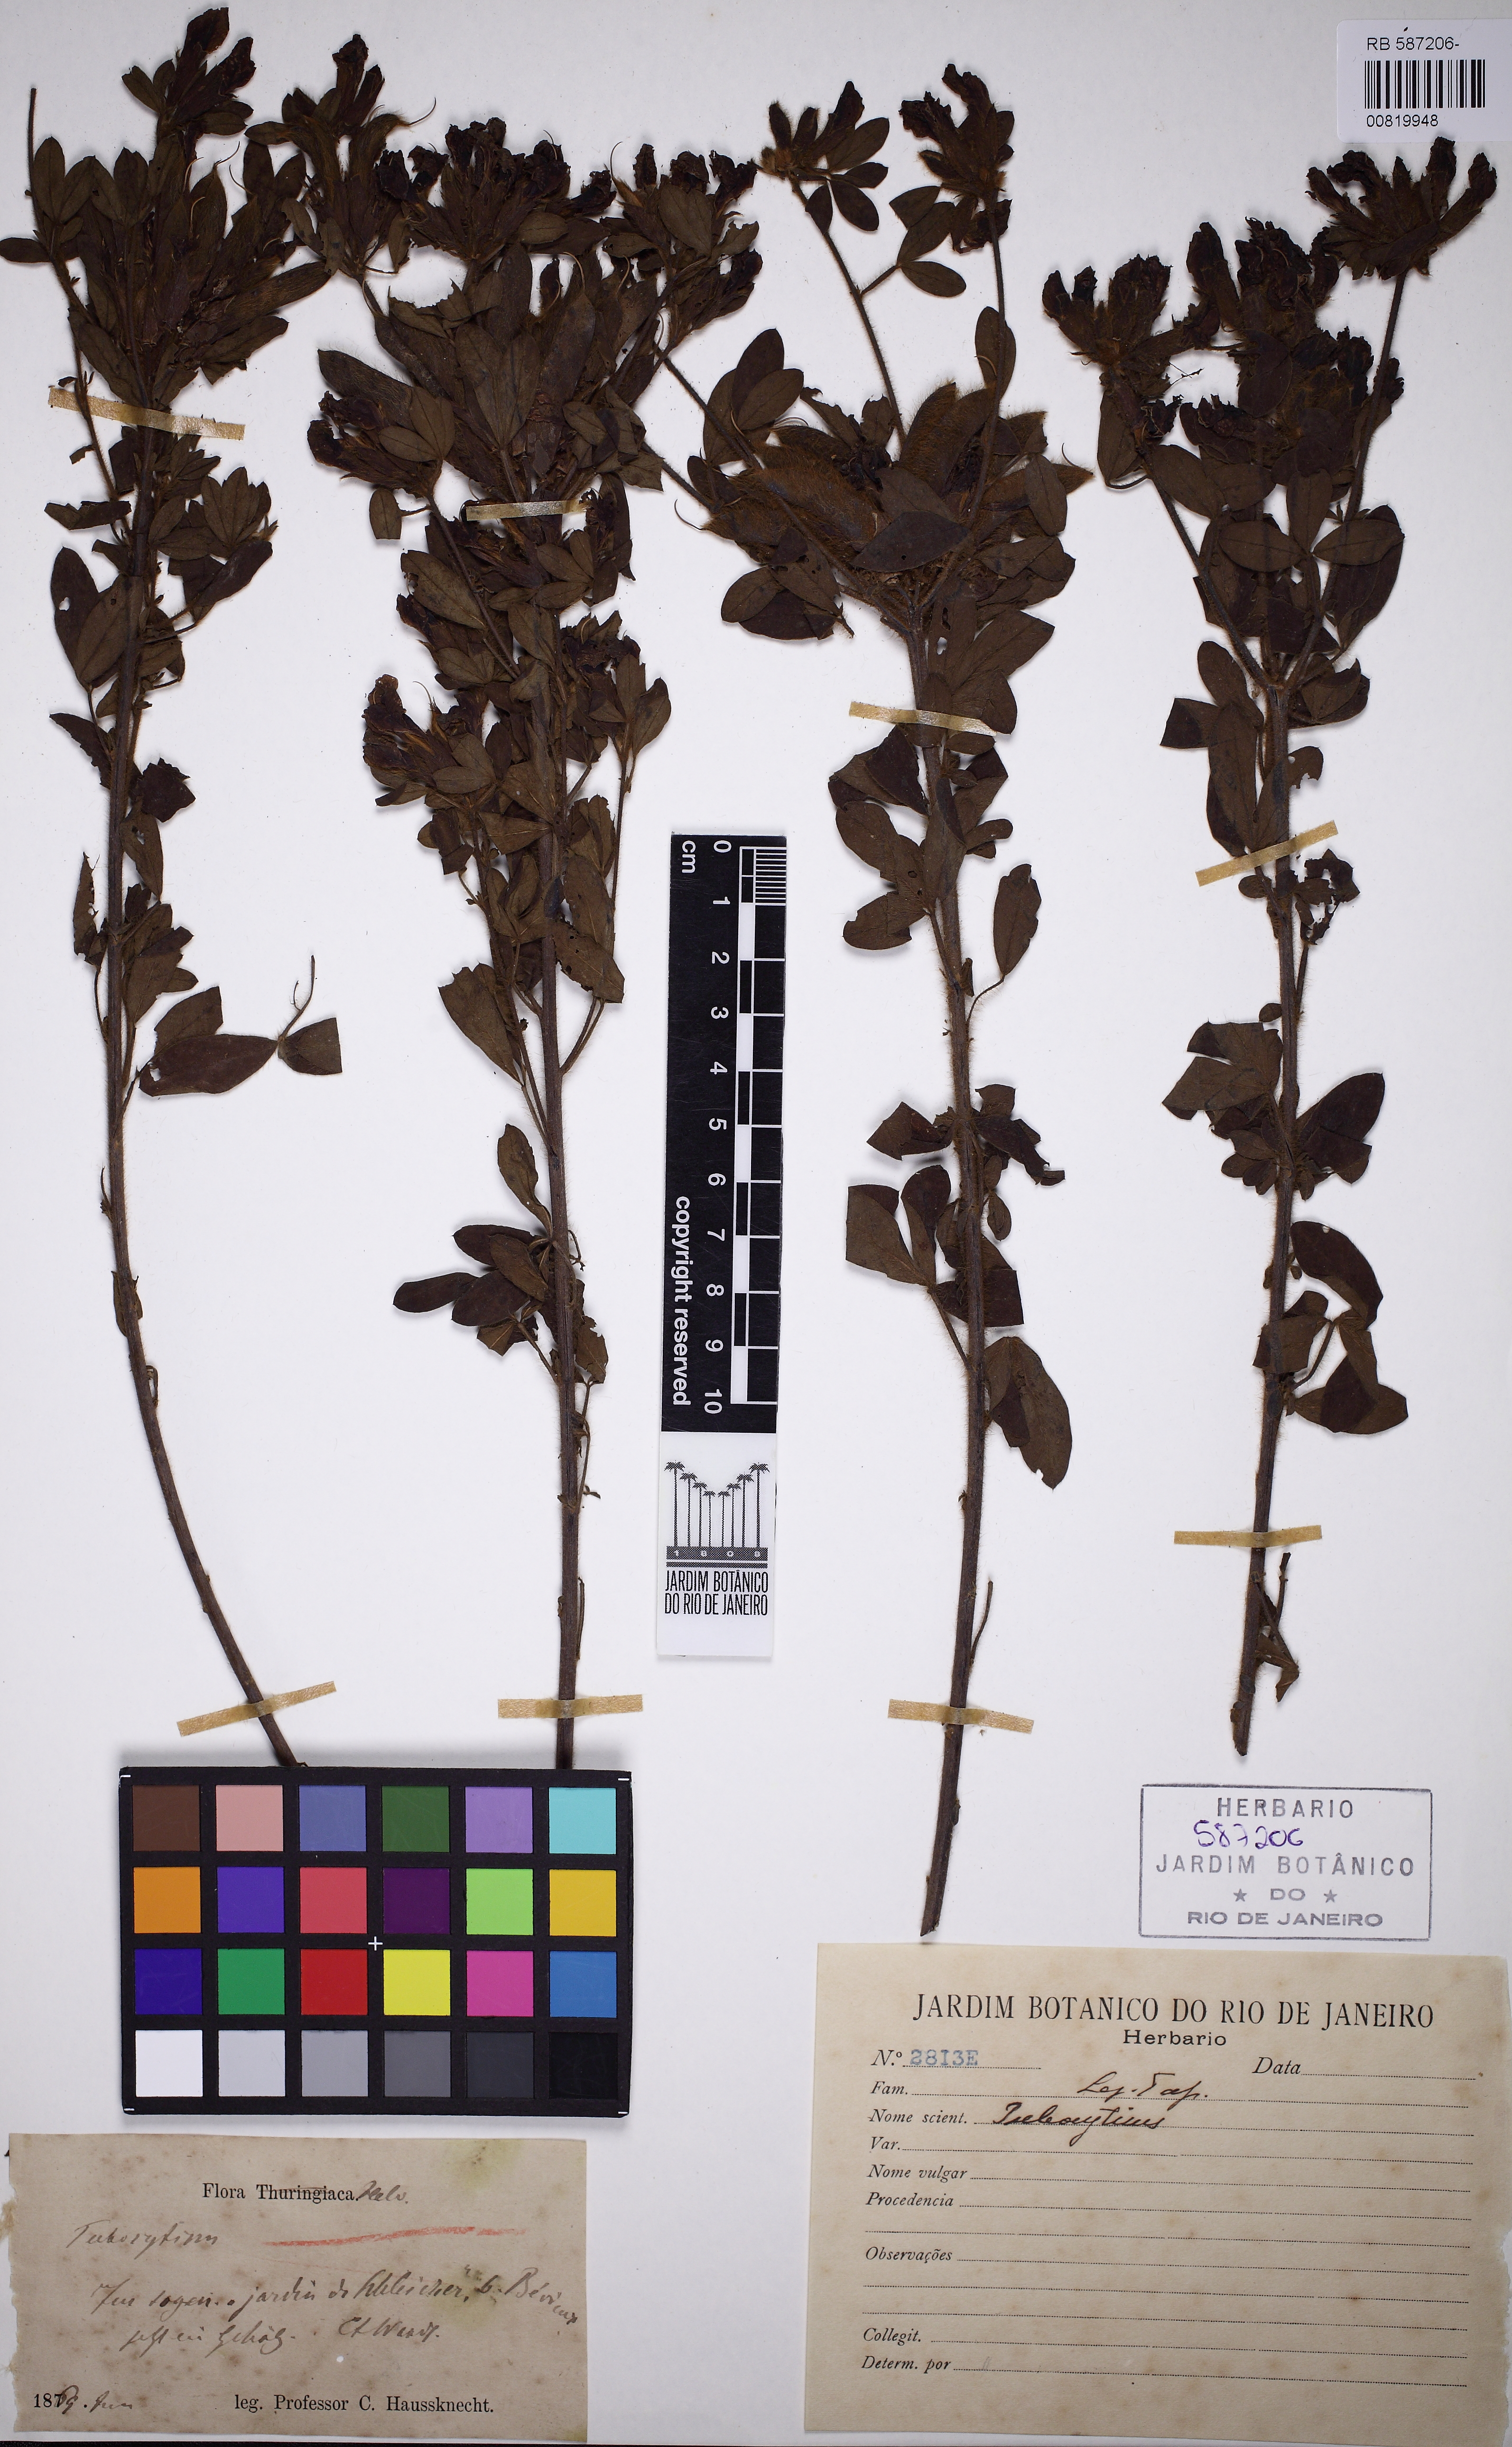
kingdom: Plantae
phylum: Tracheophyta
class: Magnoliopsida
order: Fabales
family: Fabaceae
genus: Chamaecytisus
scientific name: Chamaecytisus
